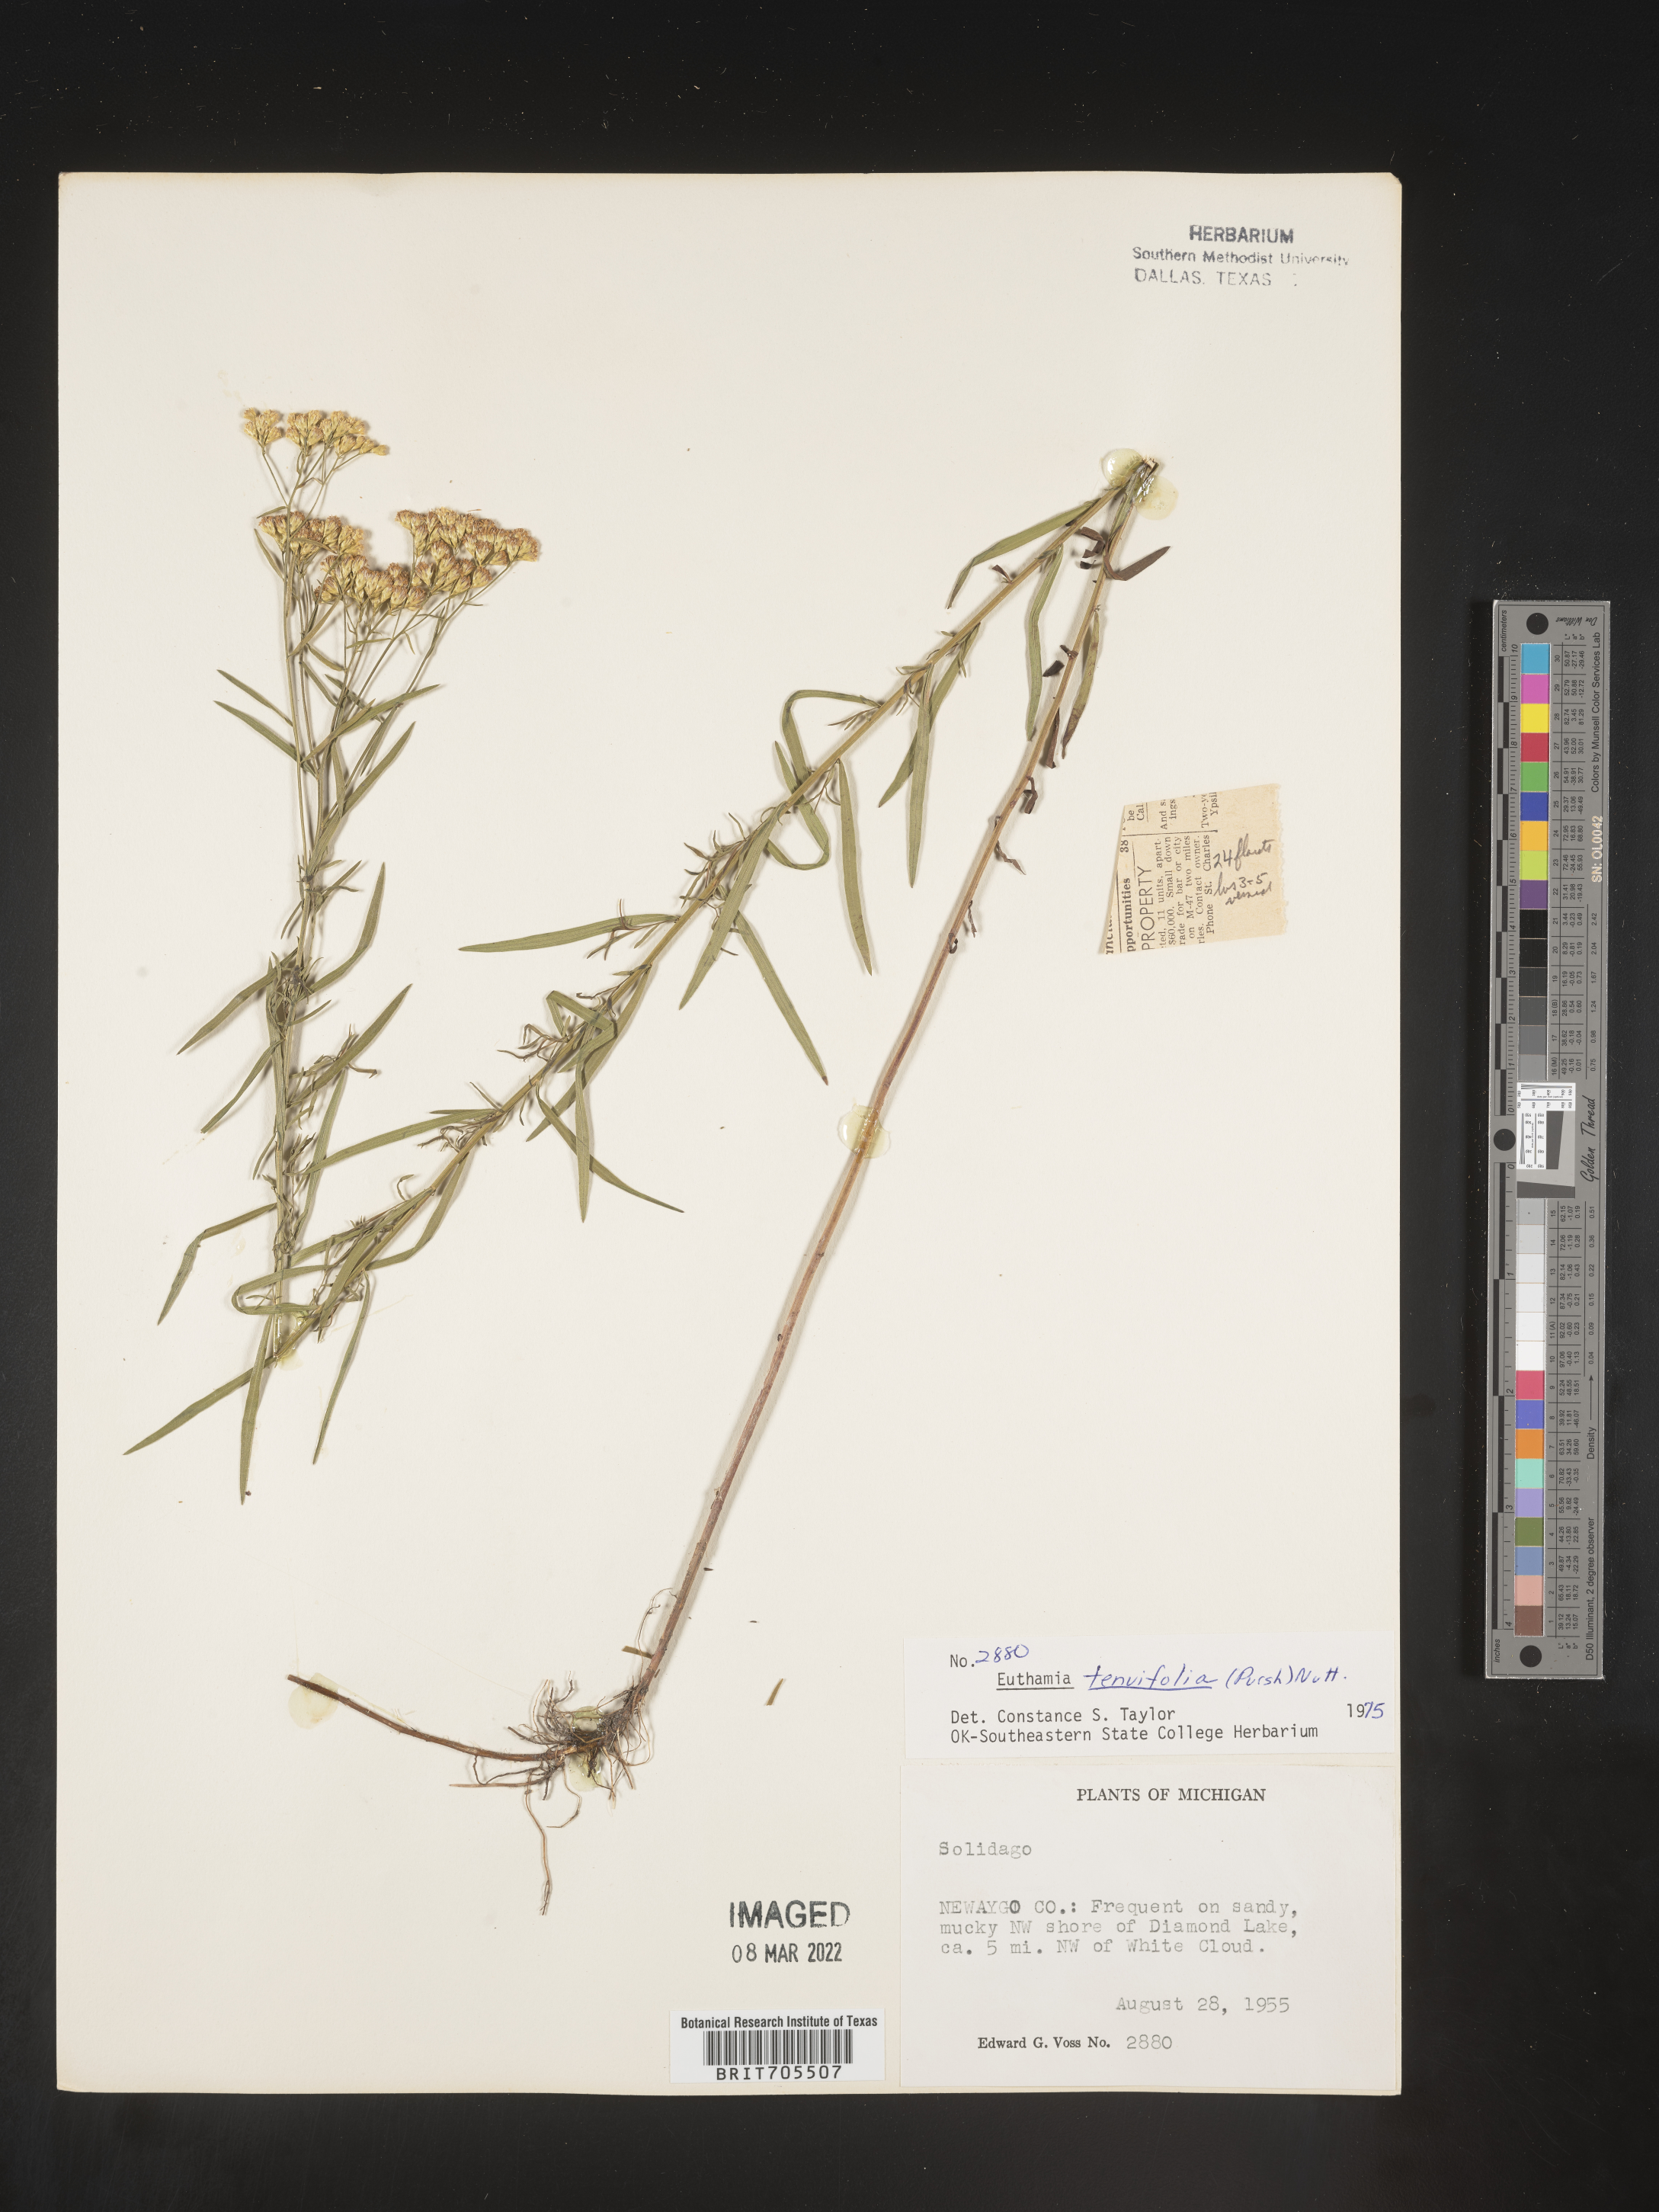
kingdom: Plantae
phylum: Tracheophyta
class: Magnoliopsida
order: Asterales
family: Asteraceae
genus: Euthamia
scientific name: Euthamia caroliniana
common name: Coastal plain goldentop
